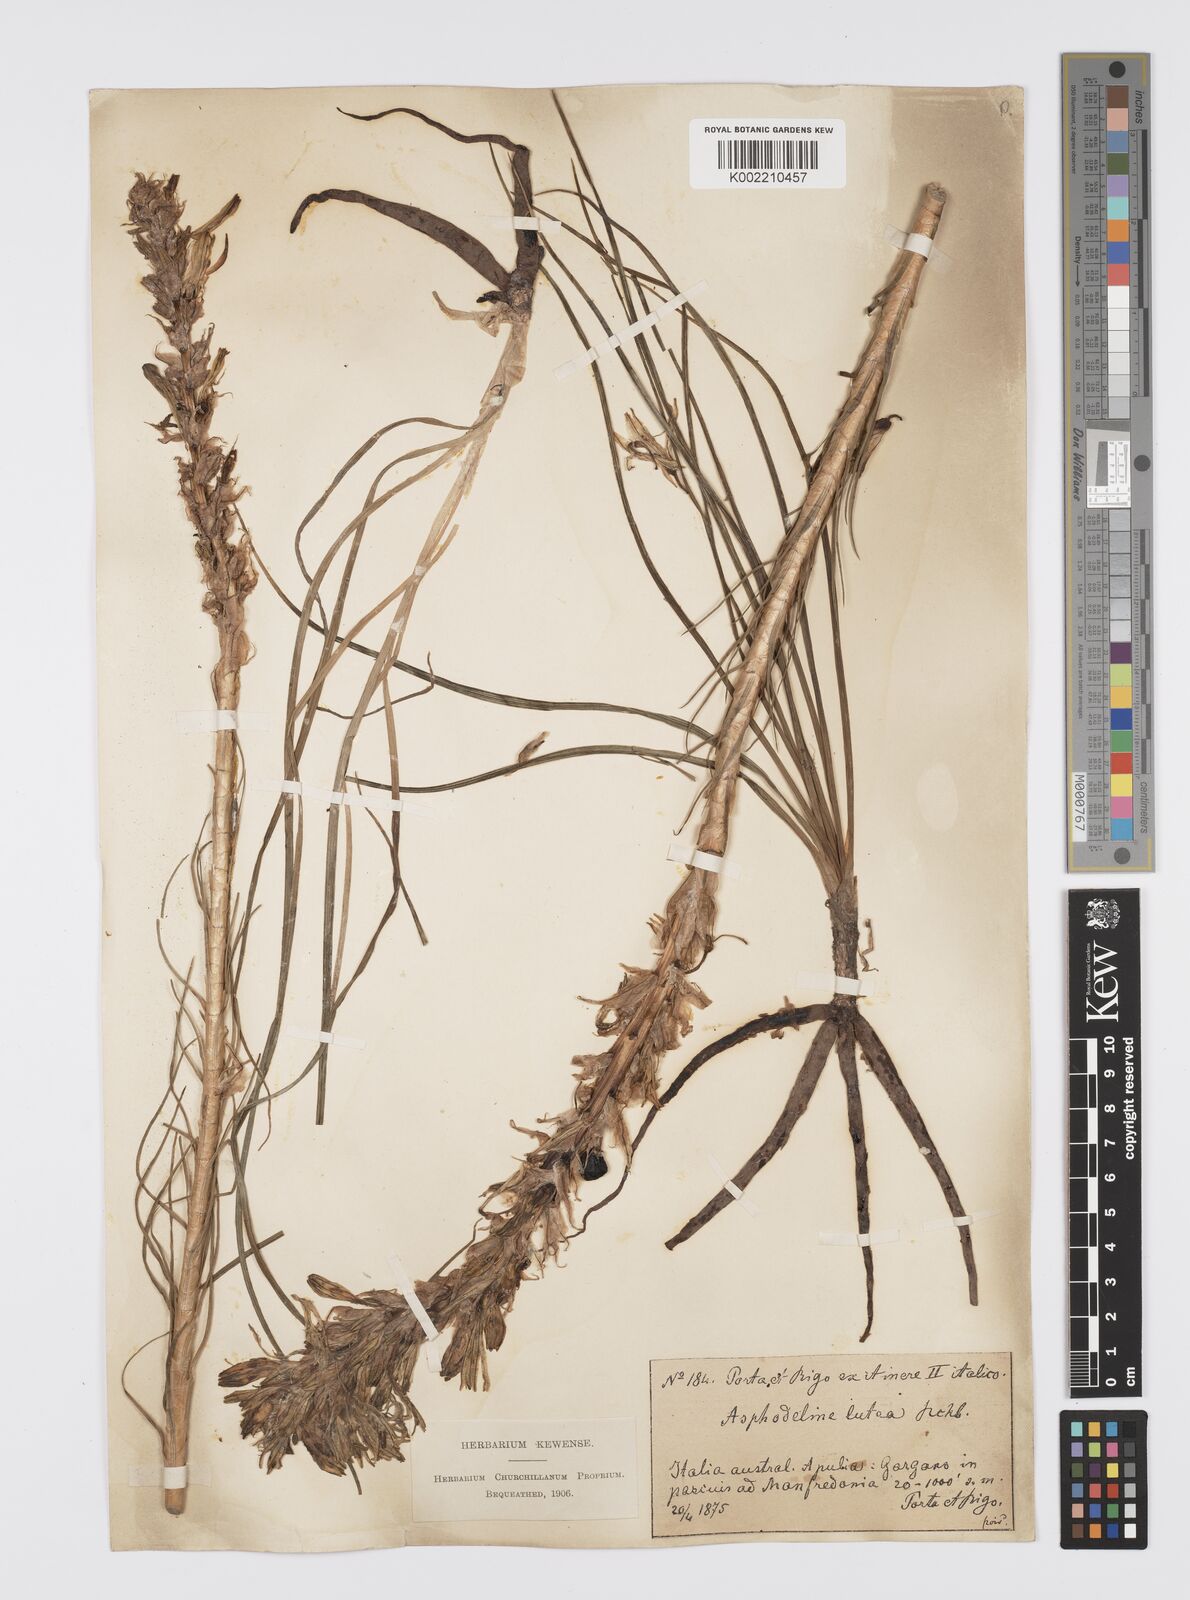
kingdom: Plantae
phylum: Tracheophyta
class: Liliopsida
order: Asparagales
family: Asphodelaceae
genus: Asphodeline
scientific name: Asphodeline lutea
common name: Yellow asphodel
